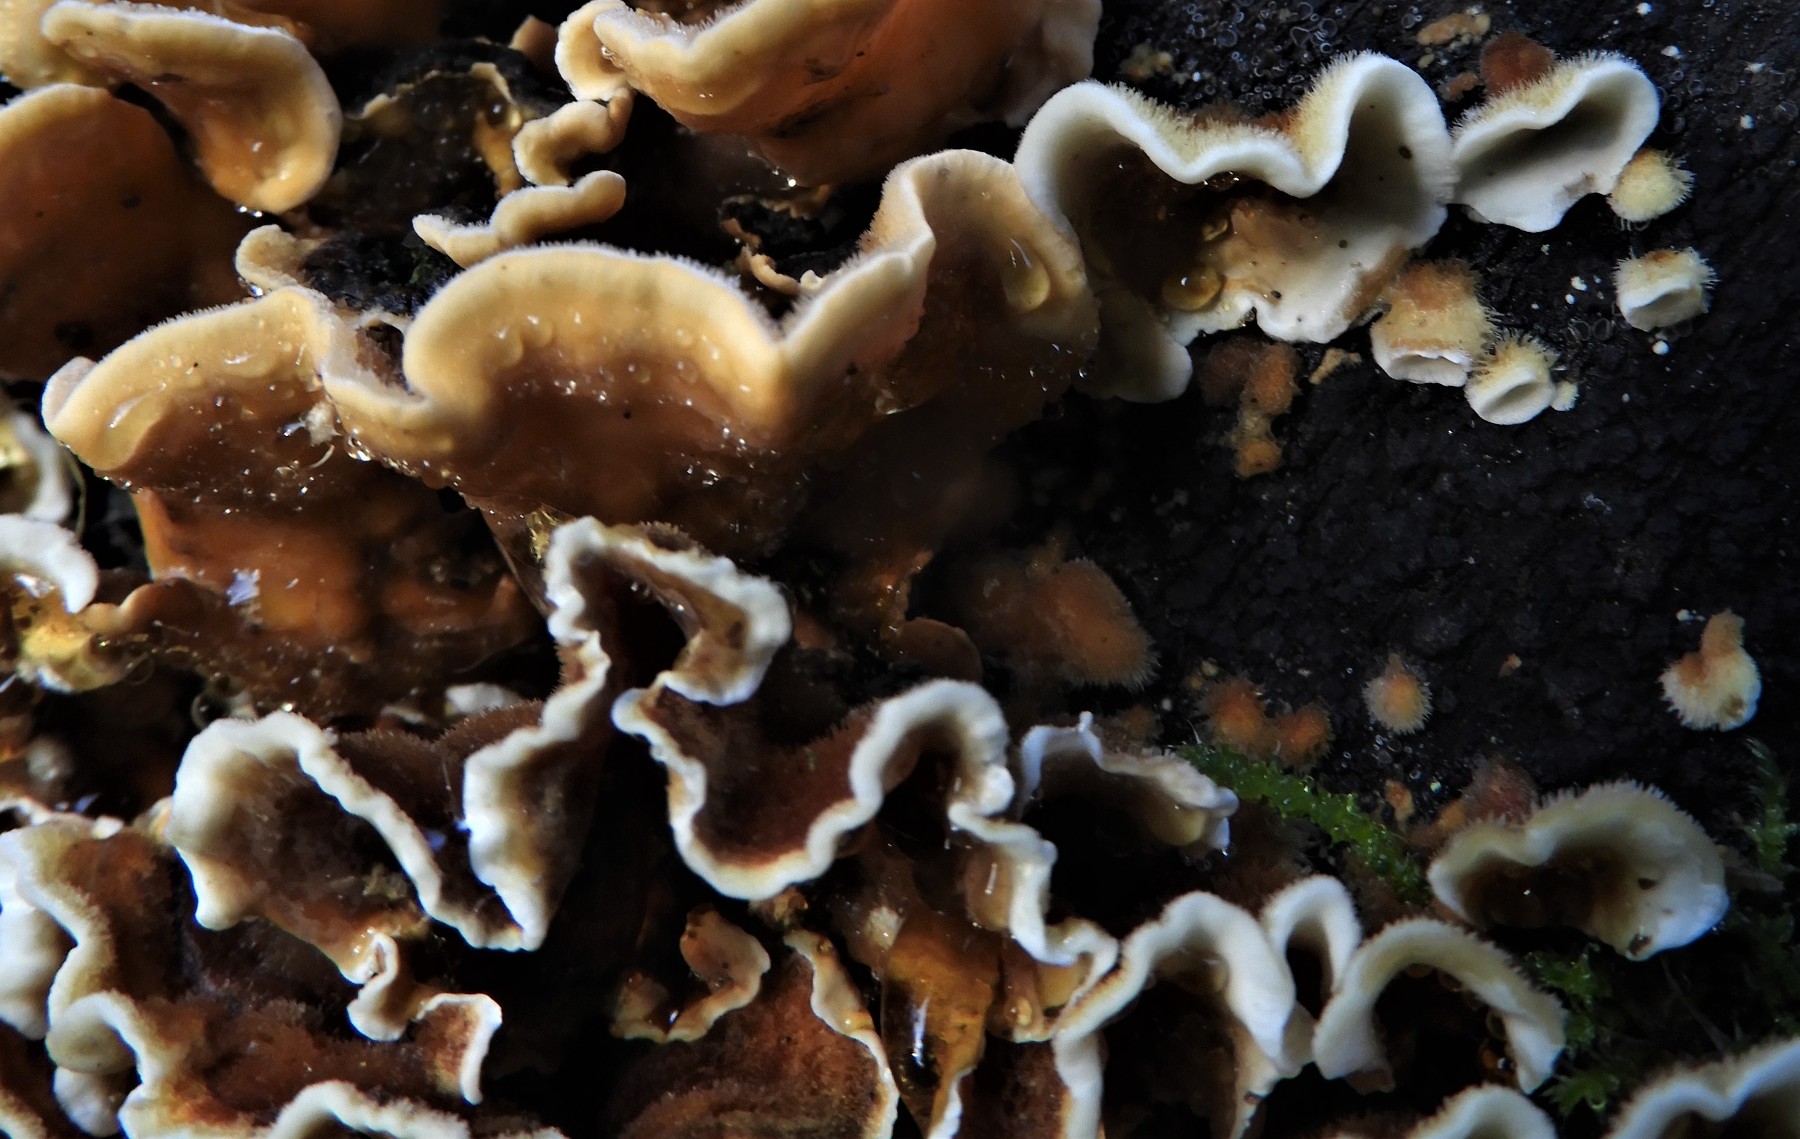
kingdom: Fungi
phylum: Basidiomycota
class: Agaricomycetes
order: Russulales
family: Stereaceae
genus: Stereum
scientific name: Stereum hirsutum
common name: håret lædersvamp
